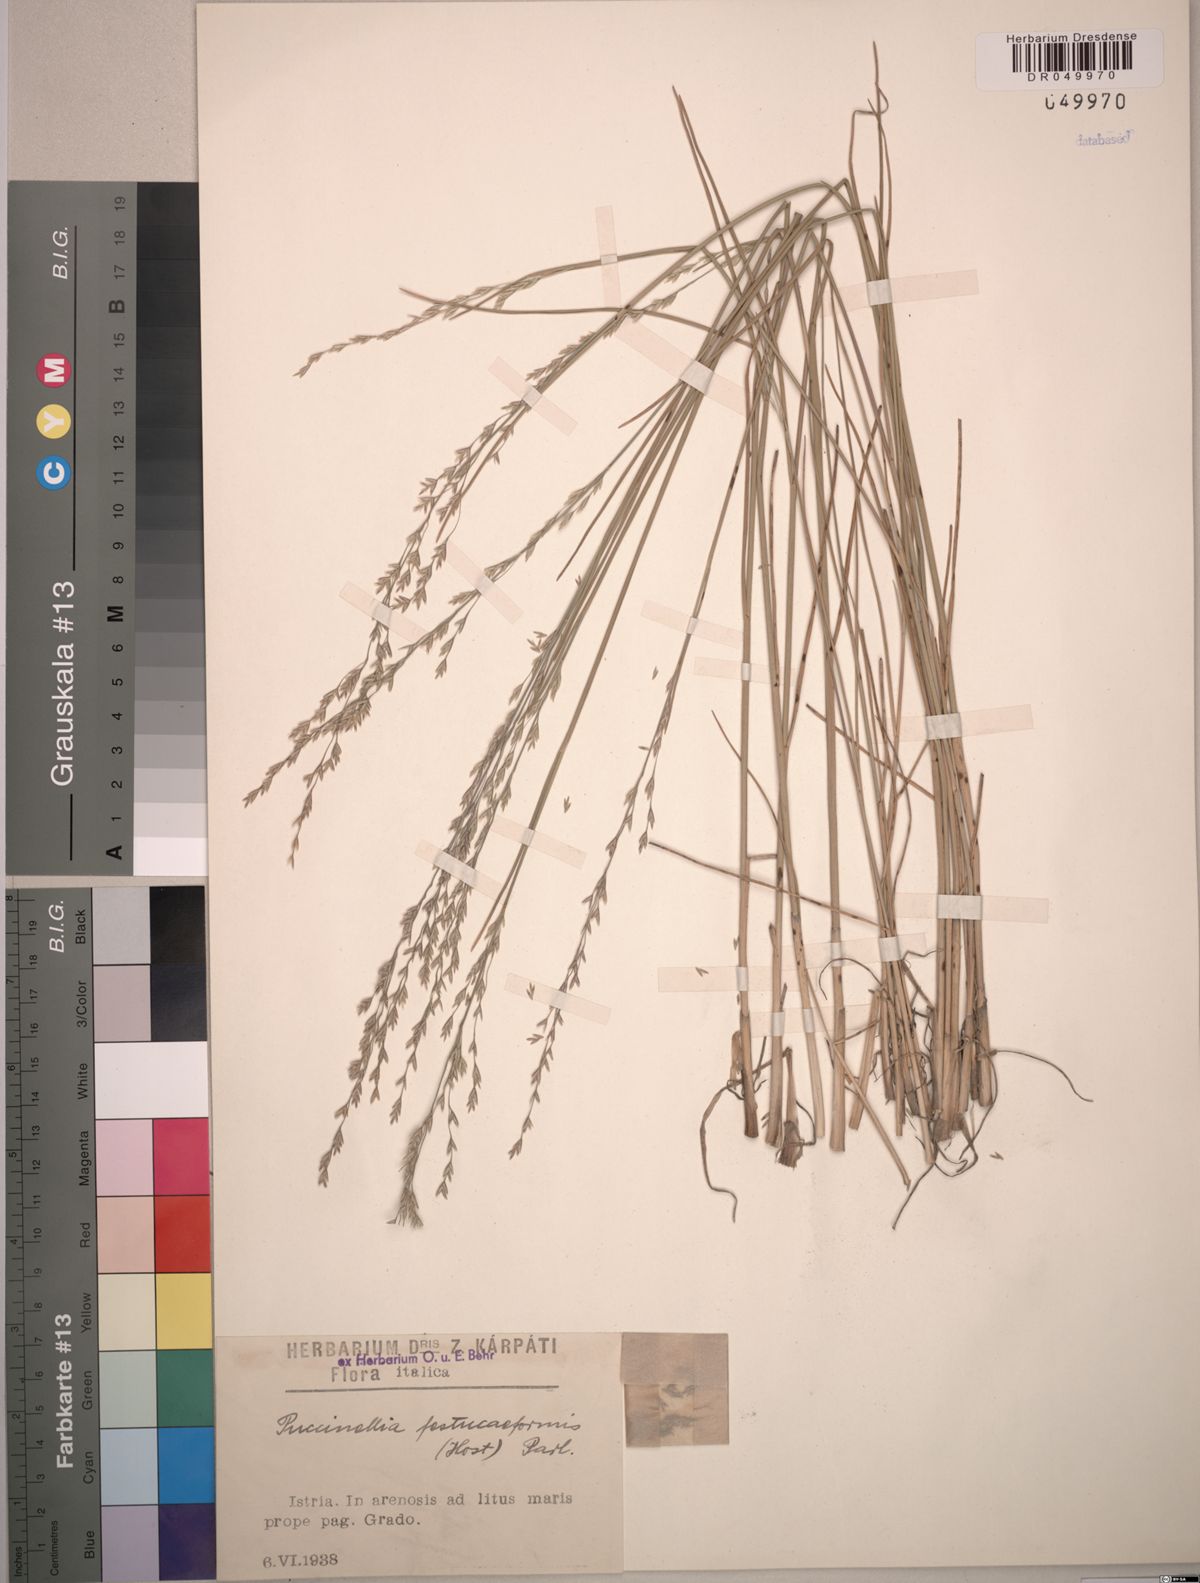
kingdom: Plantae
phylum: Tracheophyta
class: Liliopsida
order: Poales
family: Poaceae
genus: Puccinellia
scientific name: Puccinellia festuciformis
